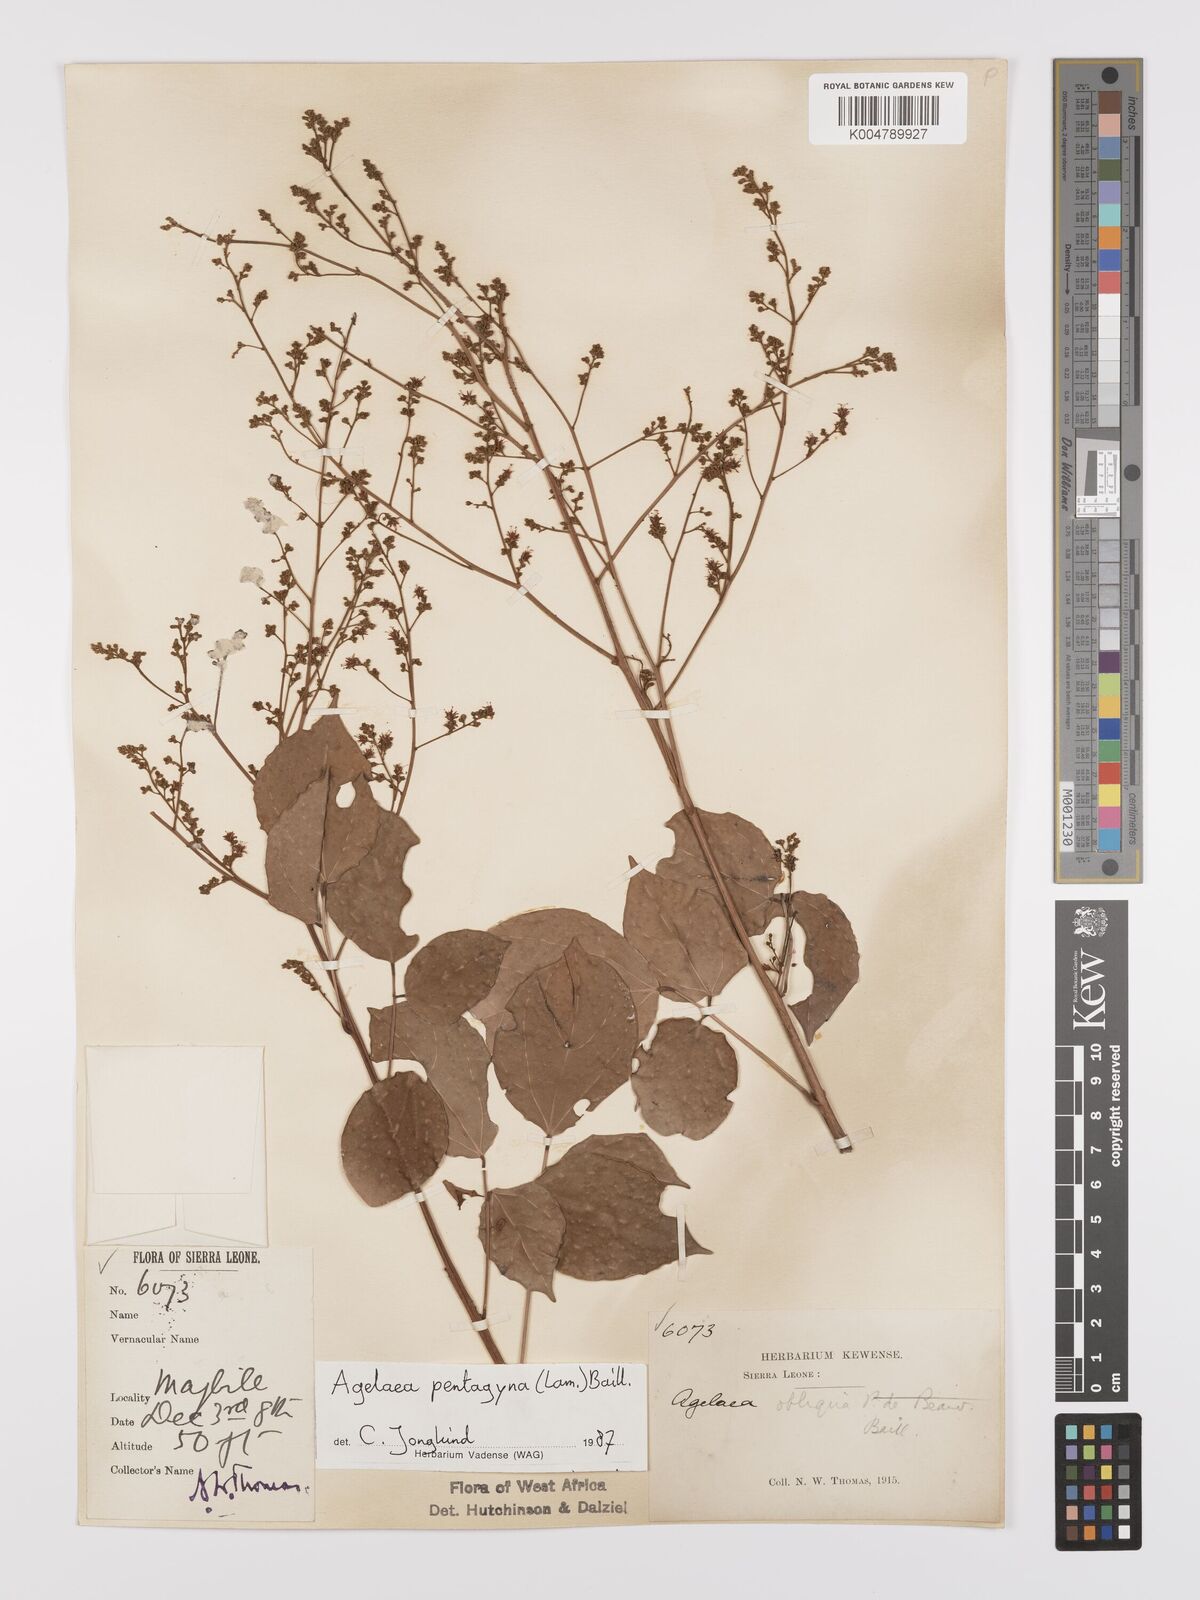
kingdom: Plantae
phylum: Tracheophyta
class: Magnoliopsida
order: Oxalidales
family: Connaraceae
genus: Agelaea
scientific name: Agelaea pentagyna
